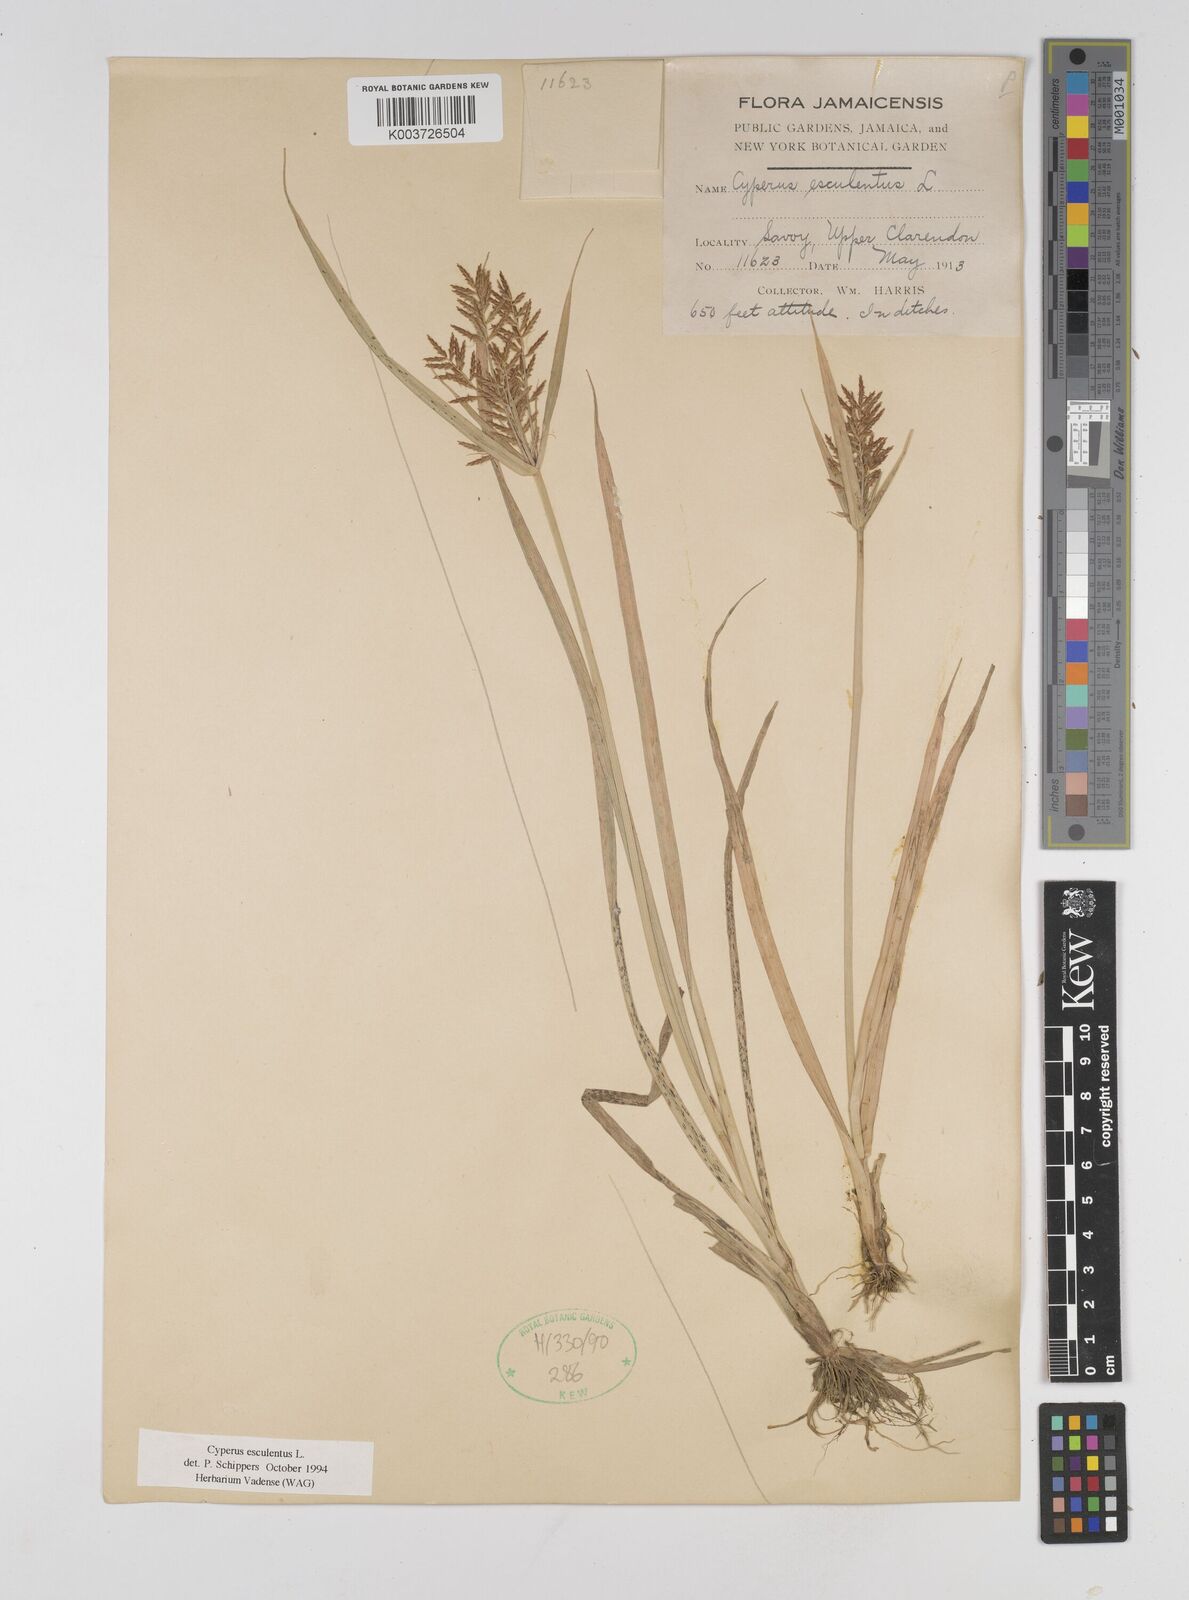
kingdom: Plantae
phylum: Tracheophyta
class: Liliopsida
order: Poales
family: Cyperaceae
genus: Cyperus
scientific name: Cyperus esculentus
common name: Yellow nutsedge
